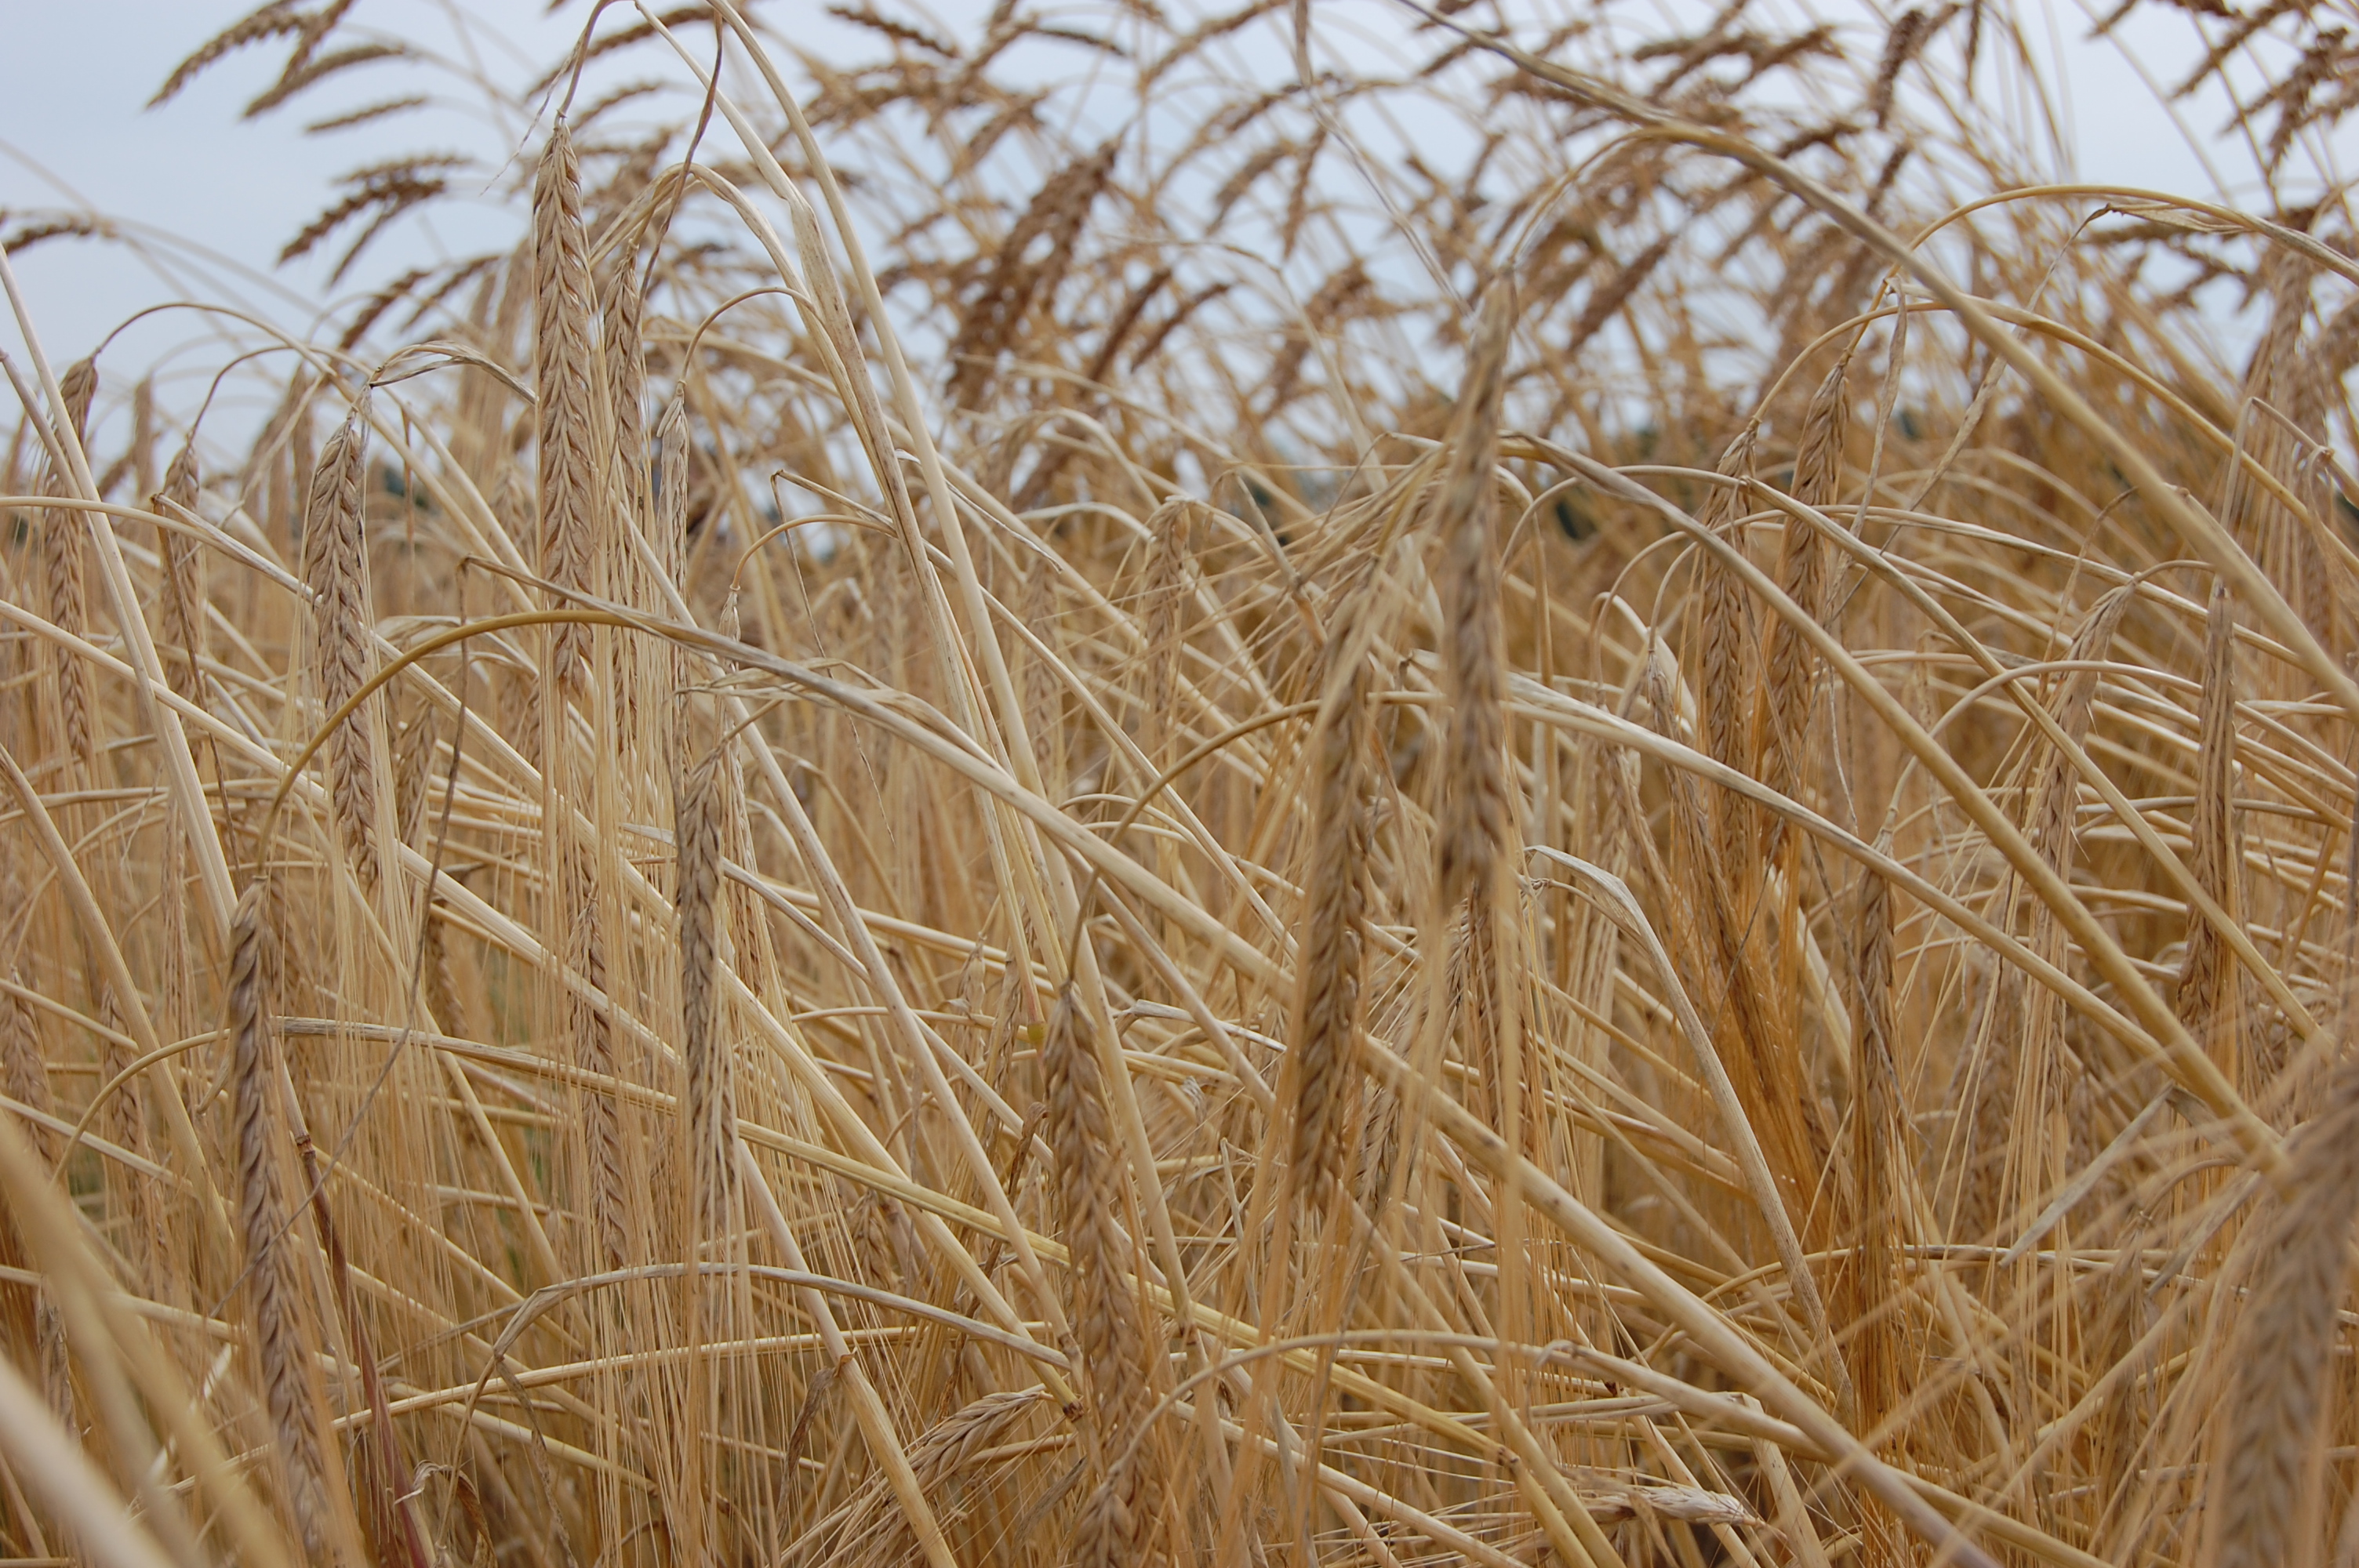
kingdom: Plantae
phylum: Tracheophyta
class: Liliopsida
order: Poales
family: Poaceae
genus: Hordeum
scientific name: Hordeum vulgare
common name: Common barley
